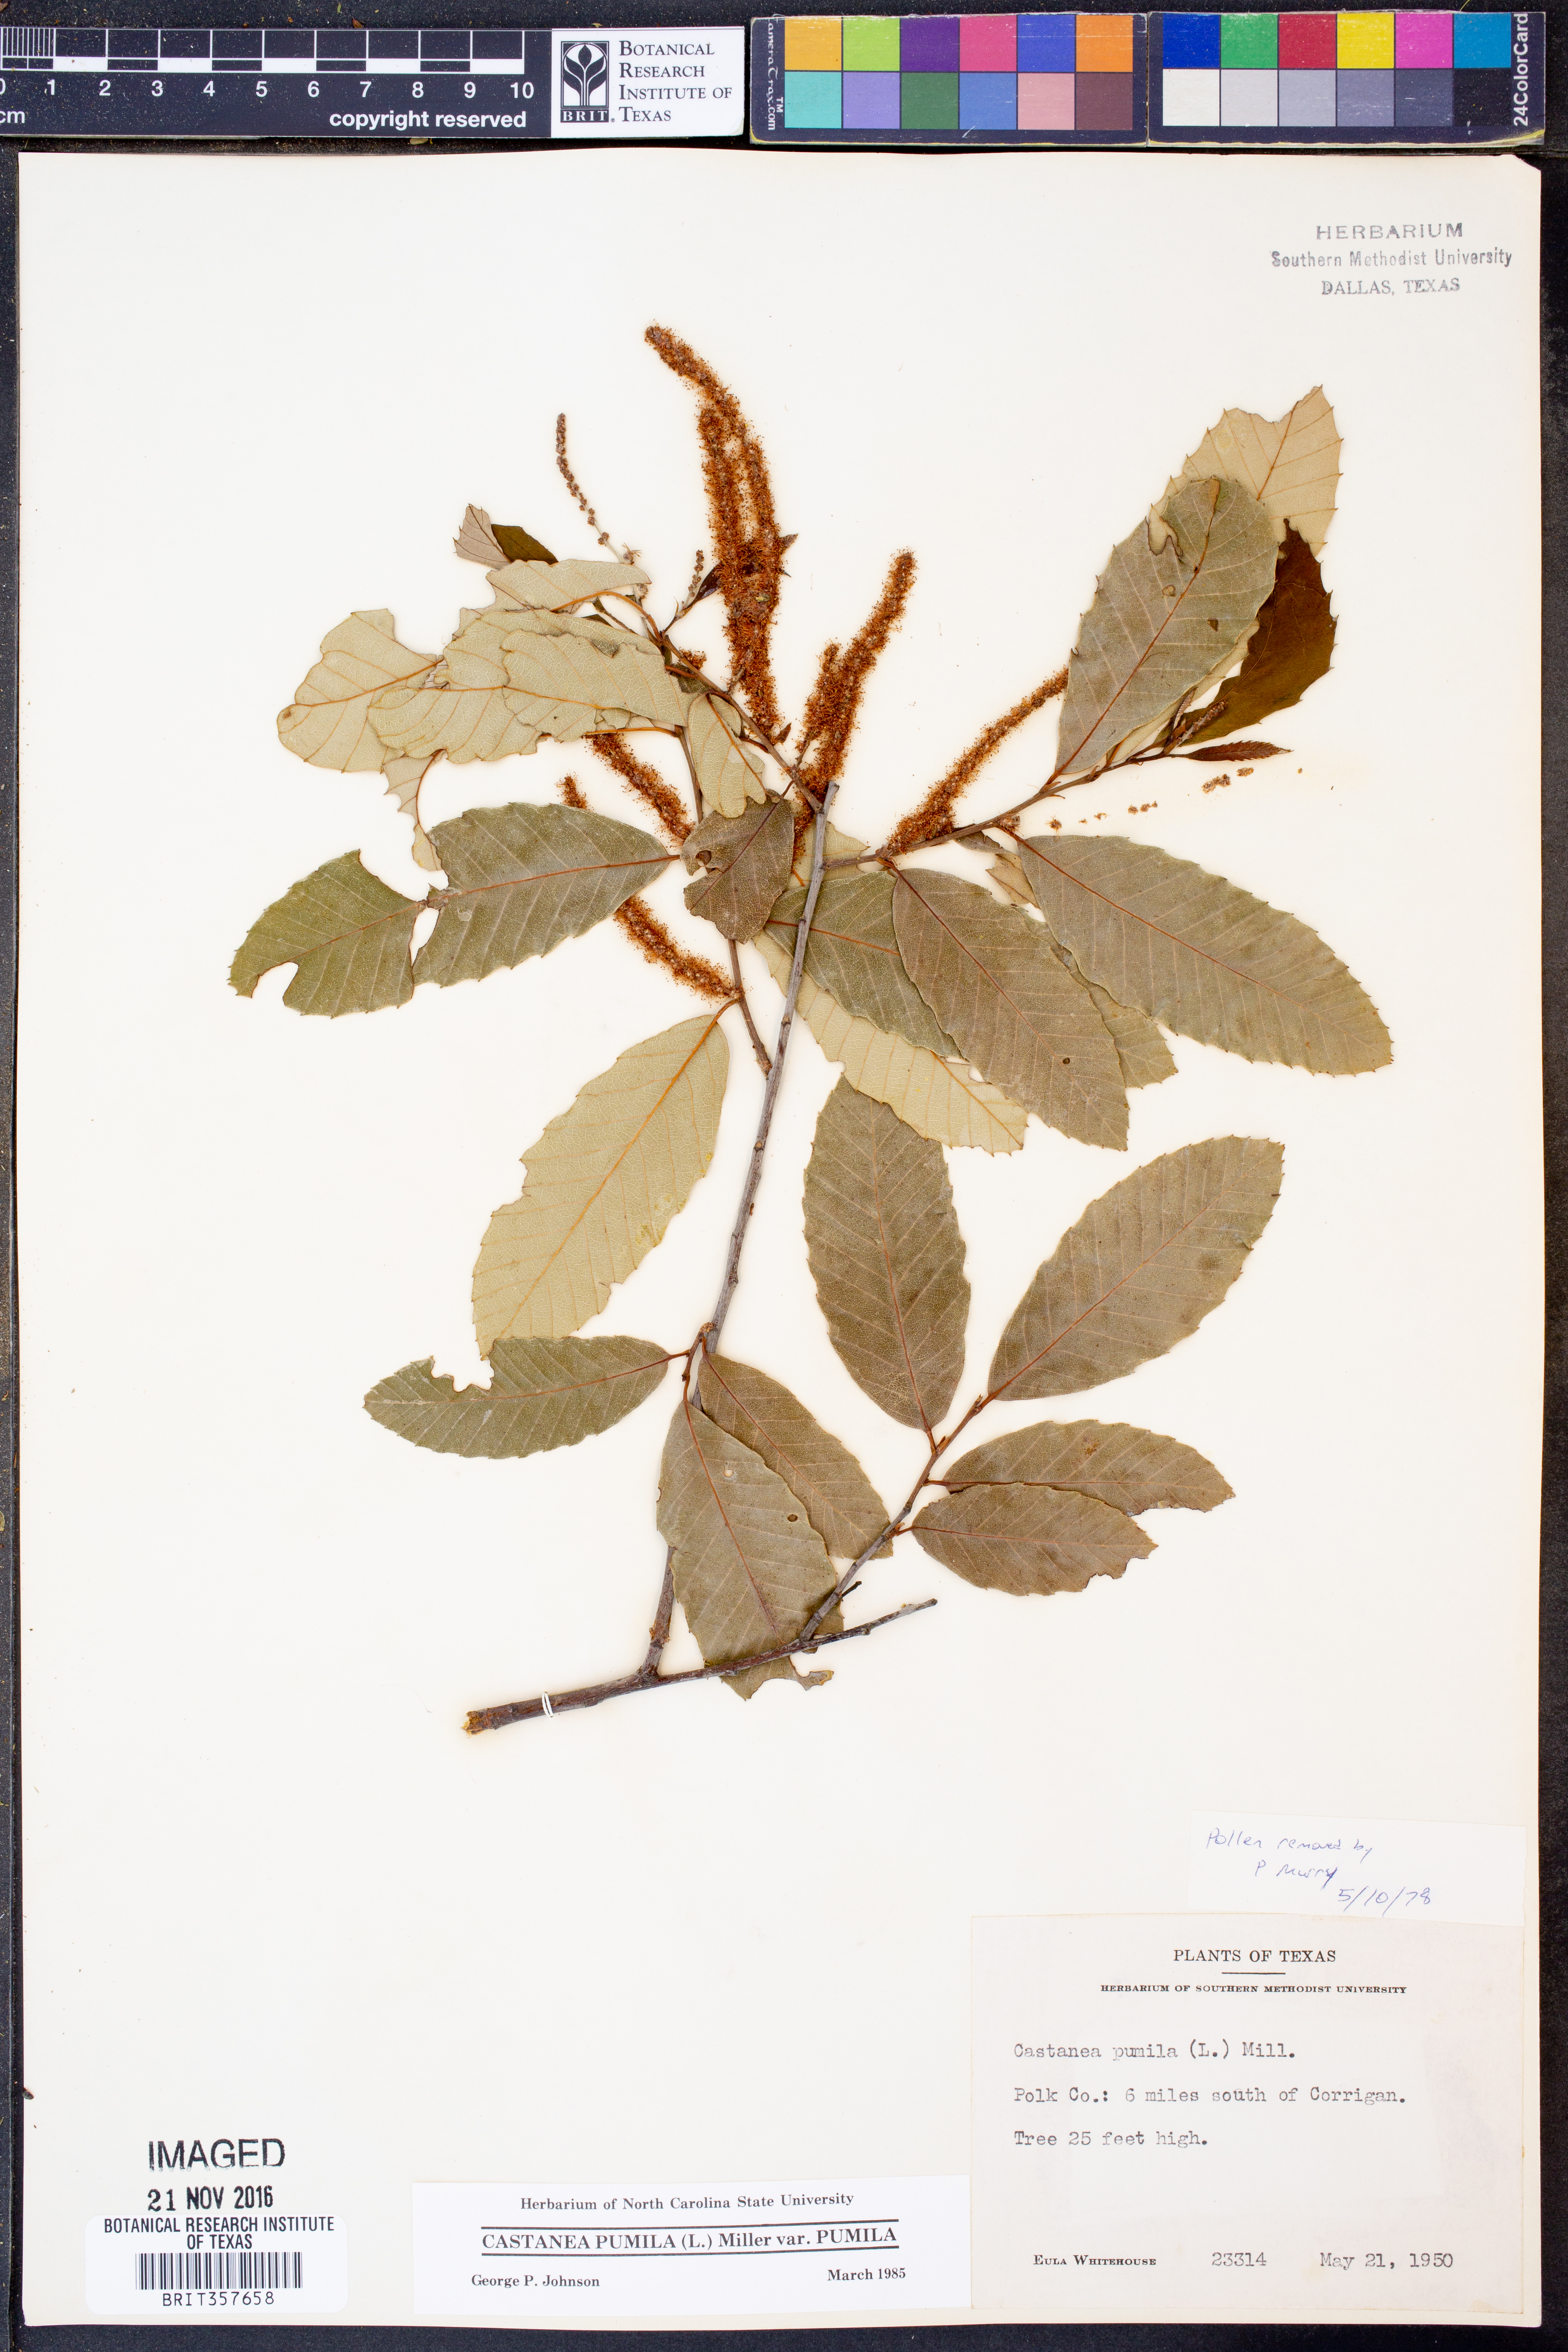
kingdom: Plantae
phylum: Tracheophyta
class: Magnoliopsida
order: Fagales
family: Fagaceae
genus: Castanea
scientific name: Castanea pumila
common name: Chinkapin
